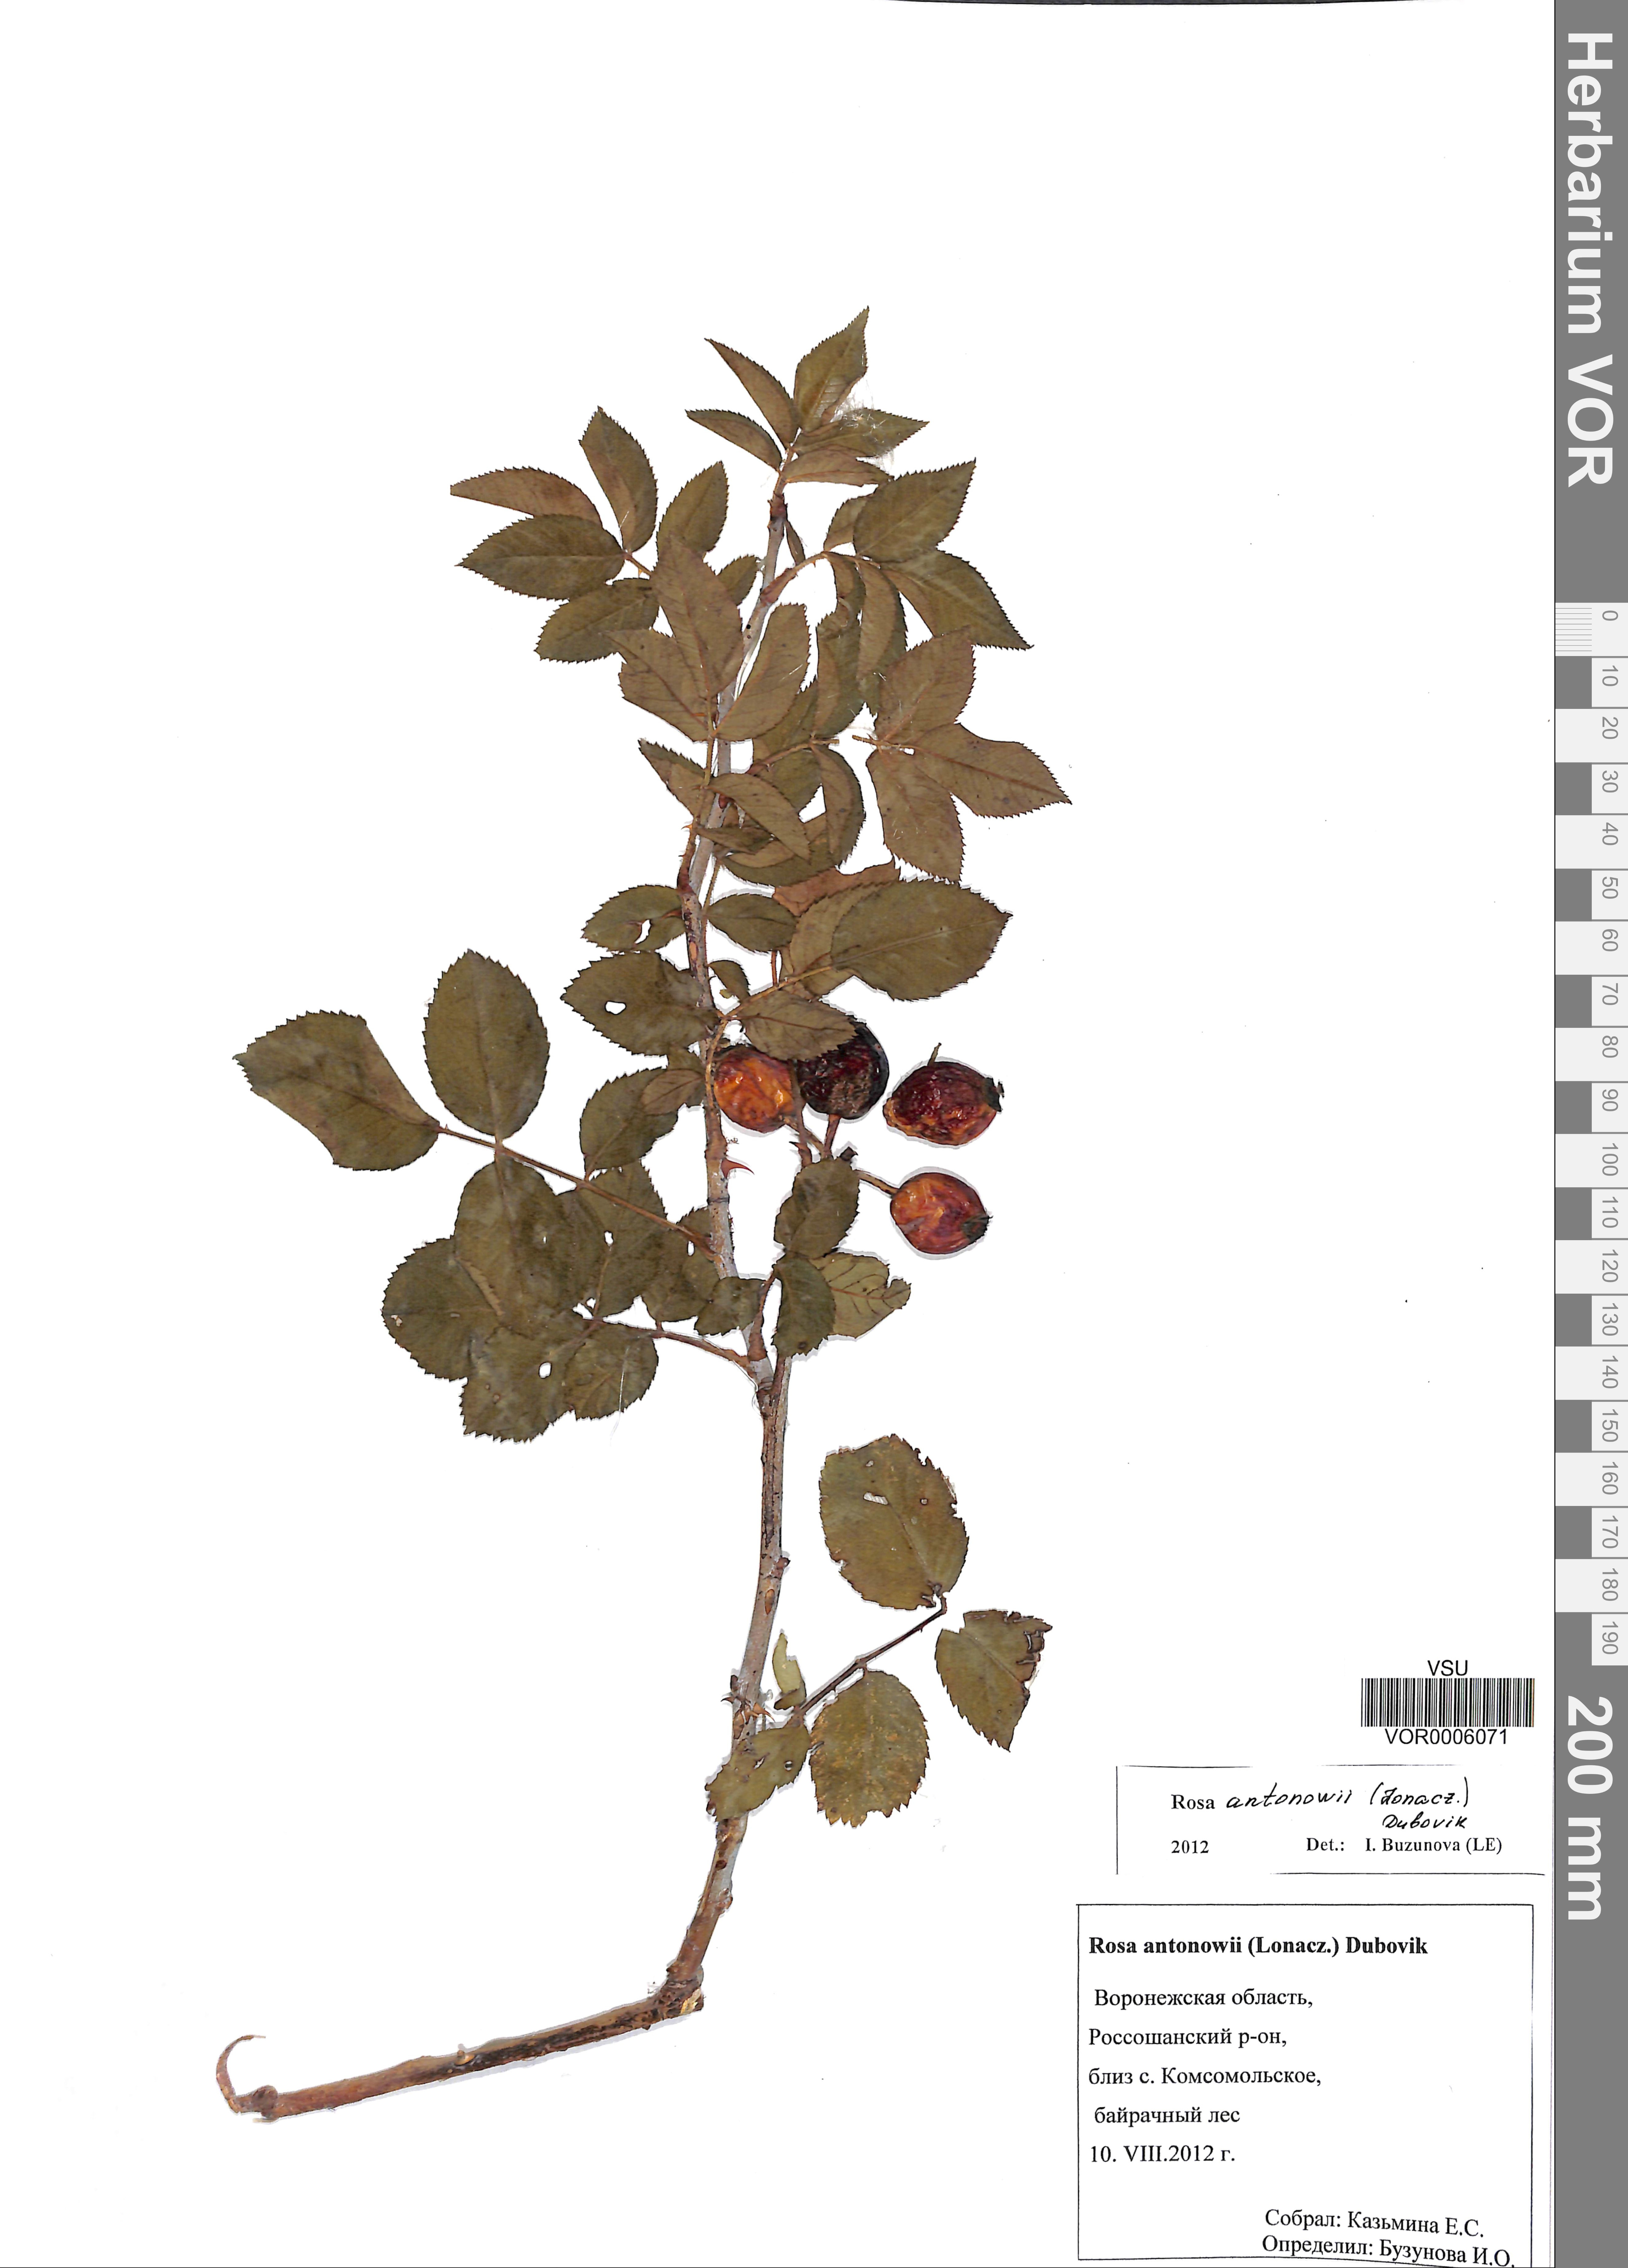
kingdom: Plantae
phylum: Tracheophyta
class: Magnoliopsida
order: Rosales
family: Rosaceae
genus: Rosa
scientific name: Rosa balsamica
